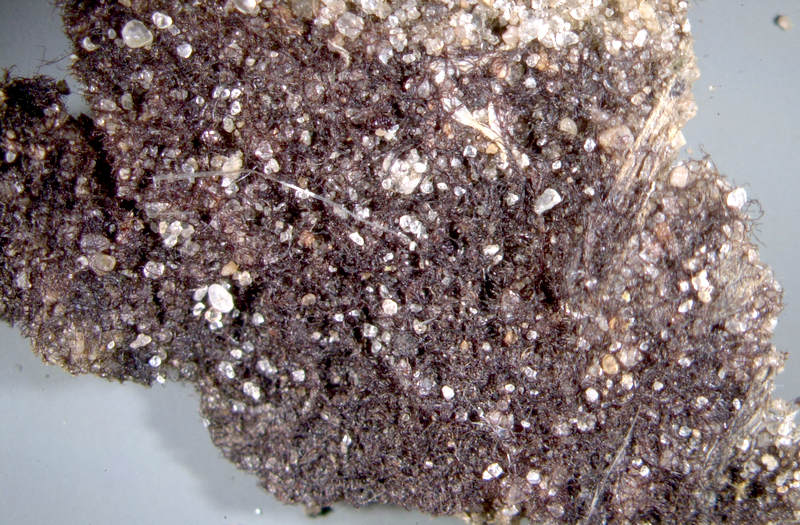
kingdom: Bacteria
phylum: Cyanobacteria
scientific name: Cyanobacteria
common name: Cyanobacteria
